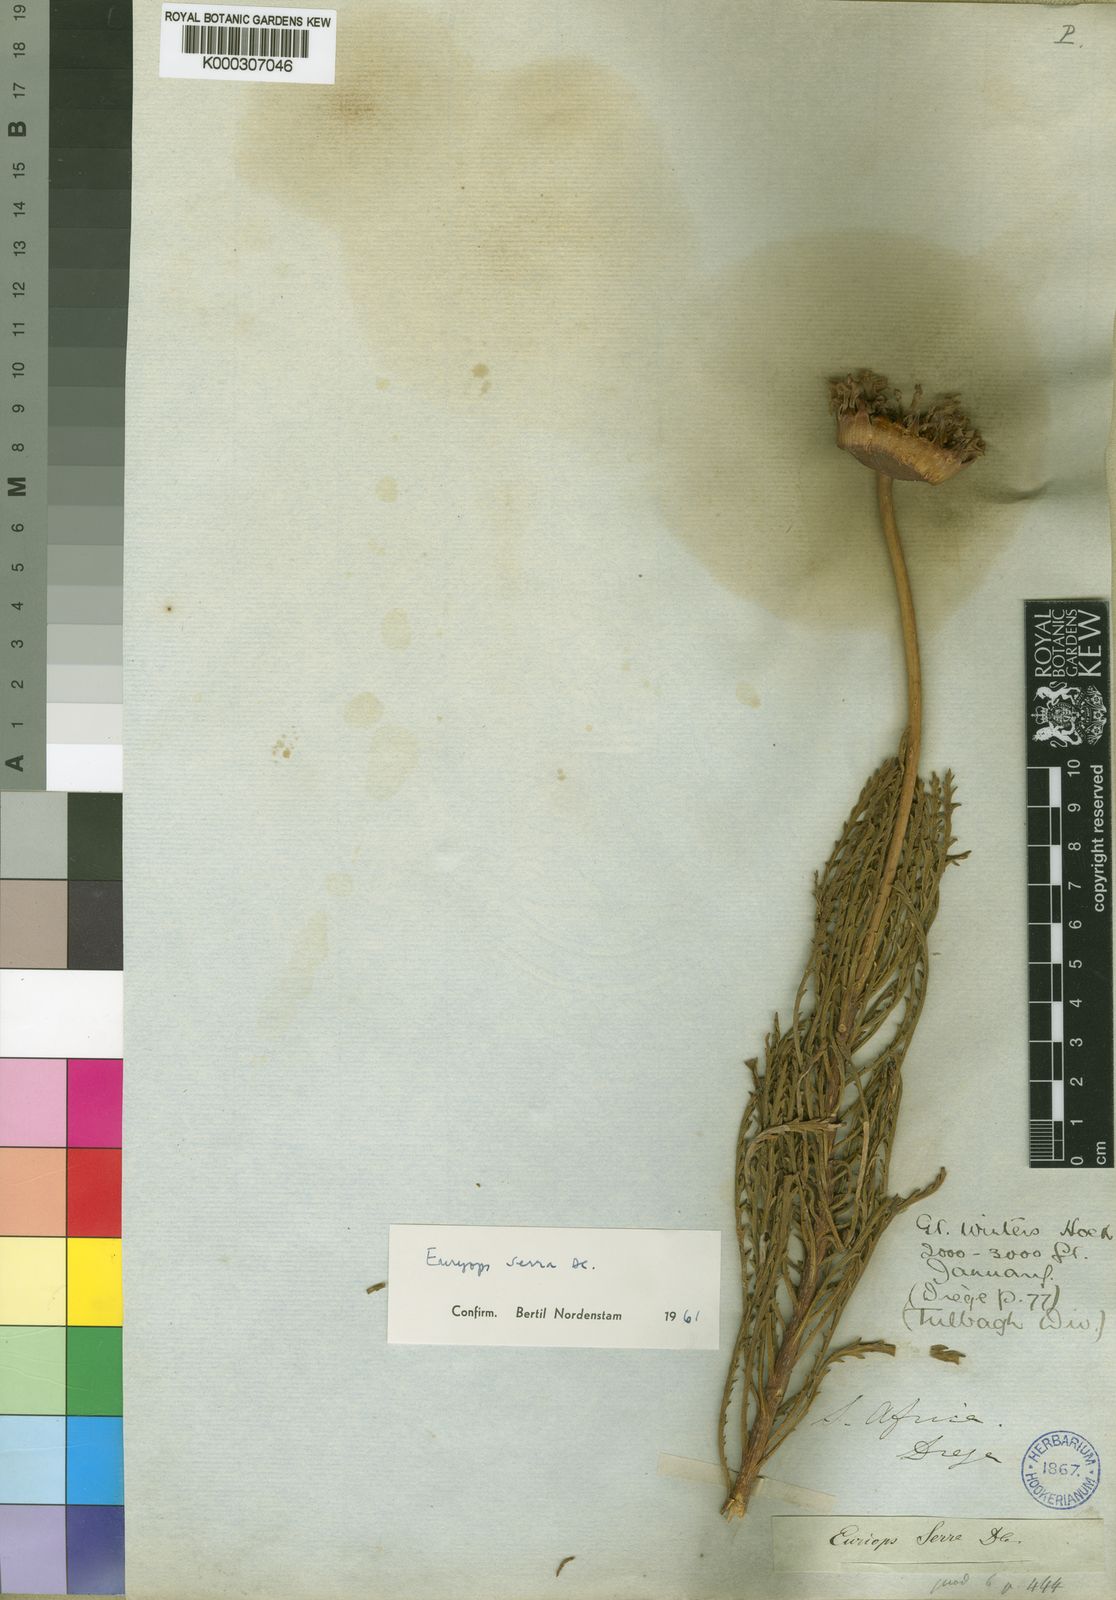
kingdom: Plantae
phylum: Tracheophyta
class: Magnoliopsida
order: Asterales
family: Asteraceae
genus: Euryops
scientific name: Euryops serra
